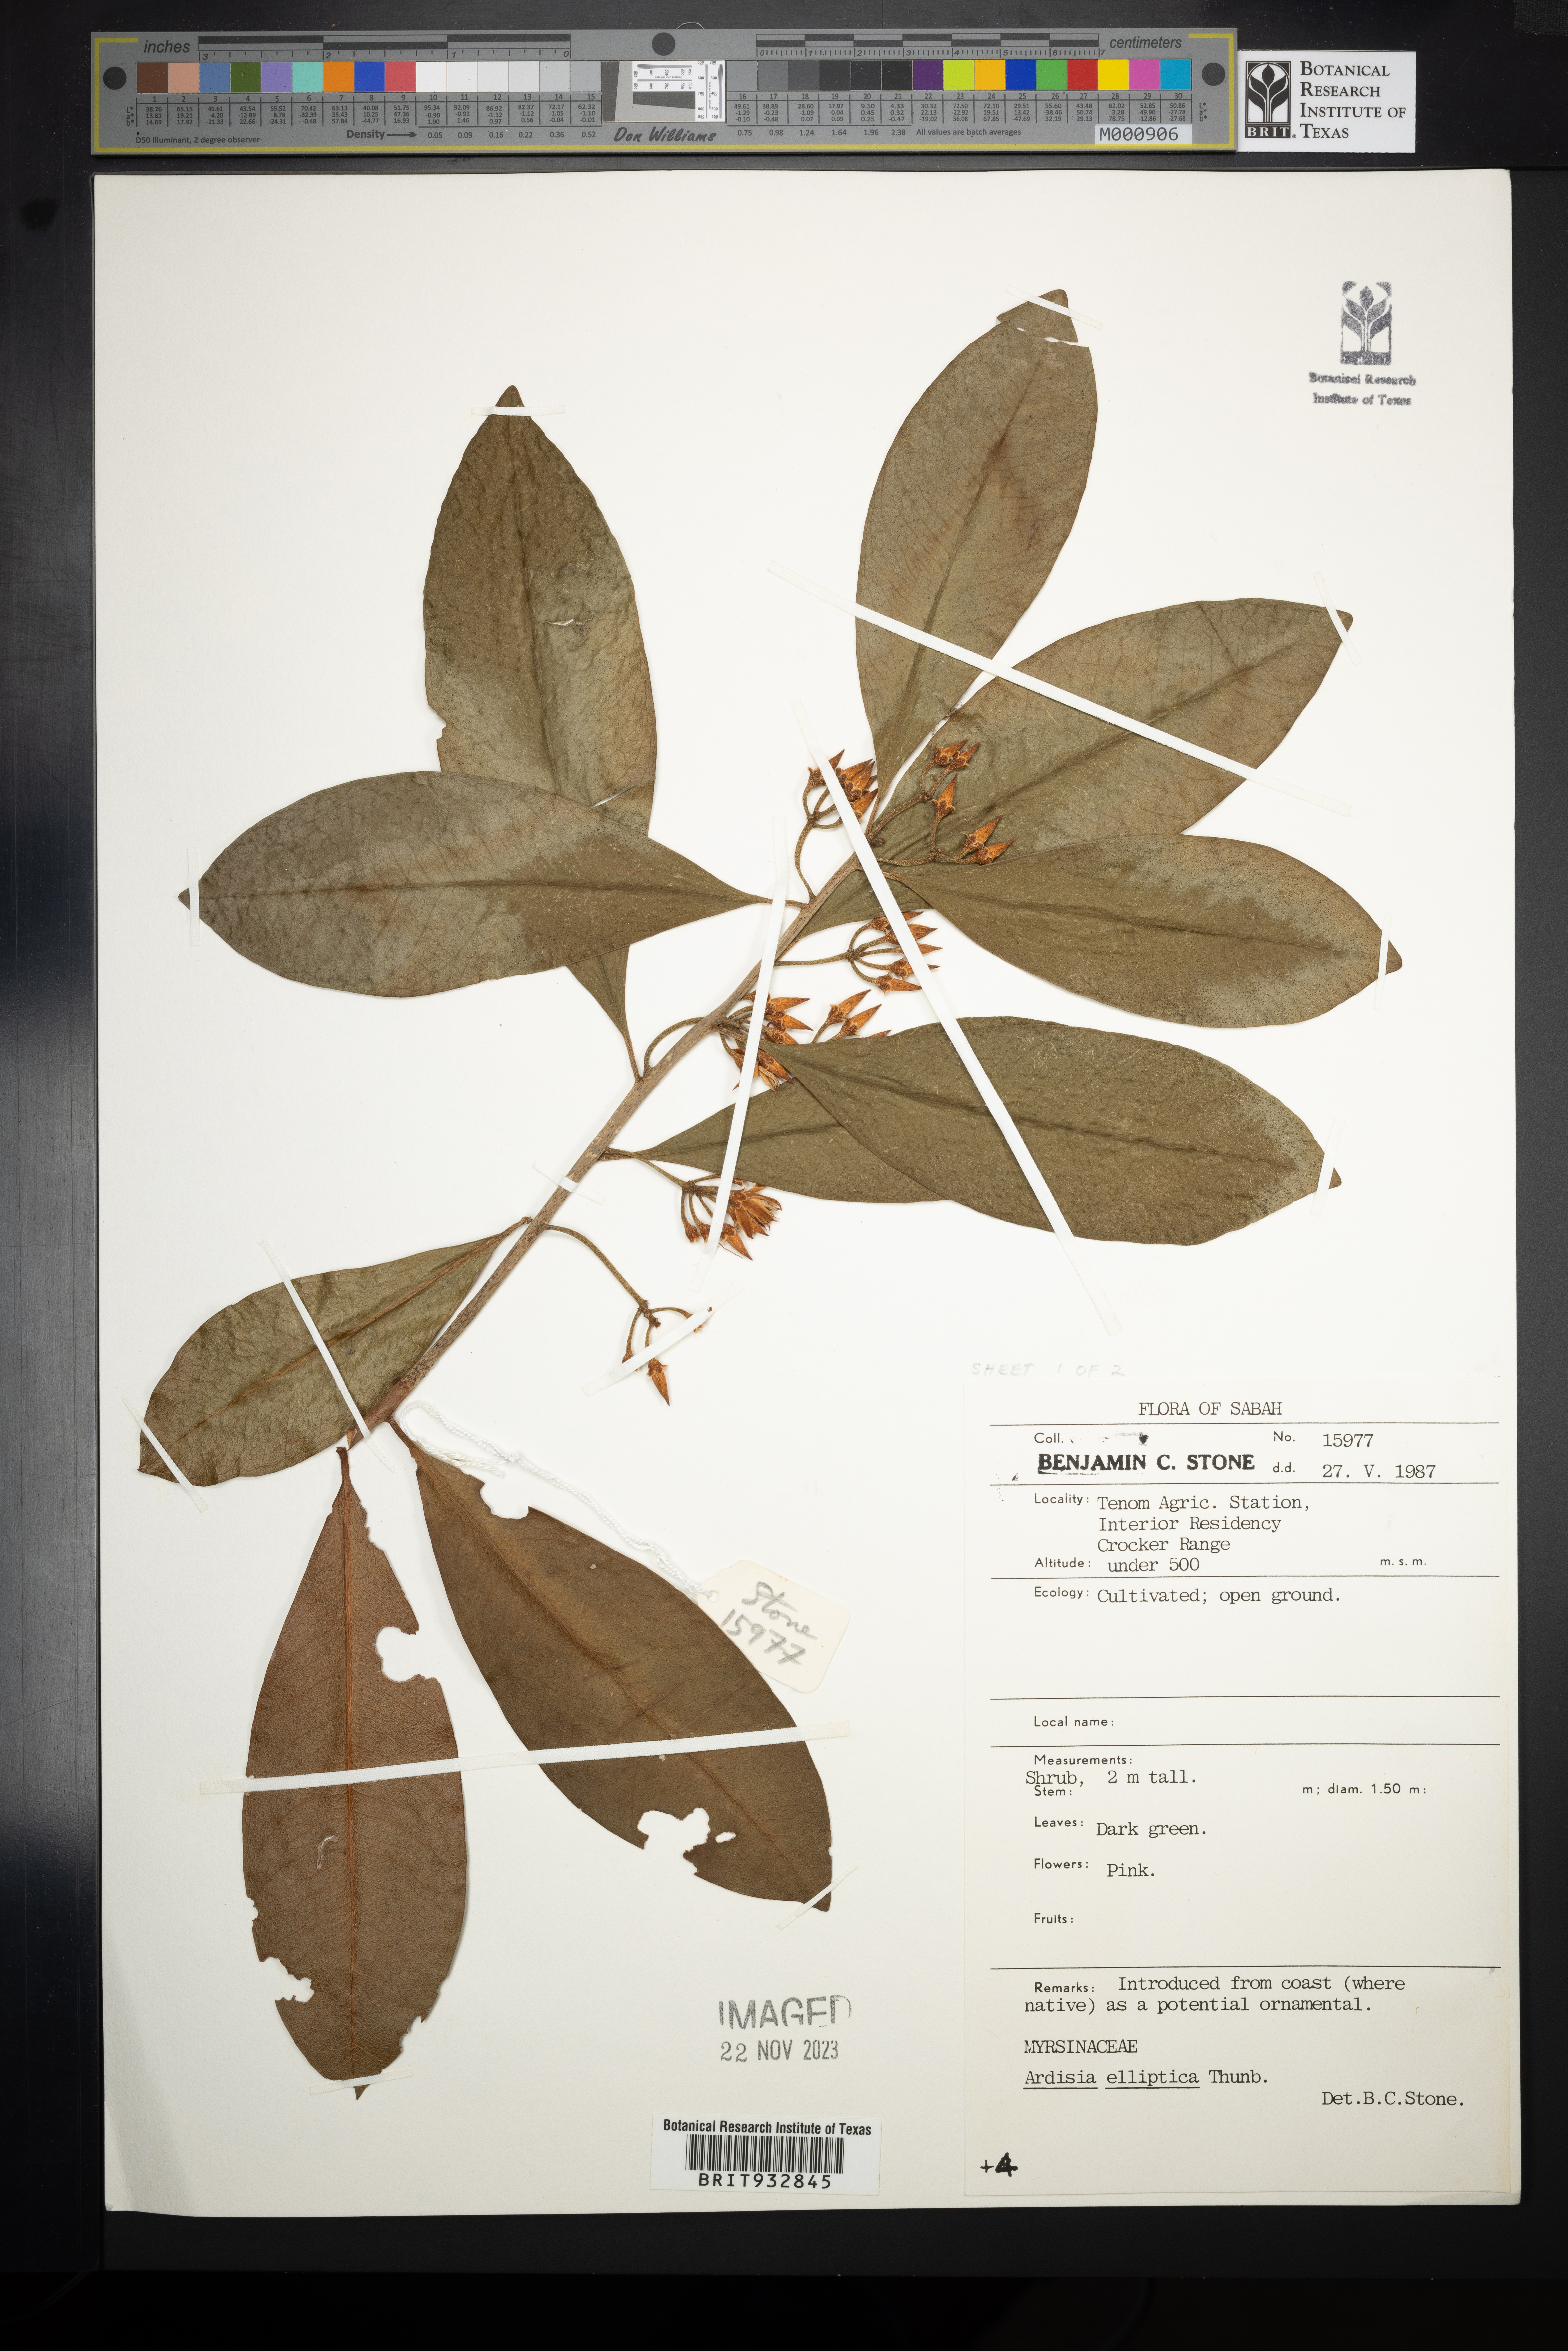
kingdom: Plantae
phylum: Tracheophyta
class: Magnoliopsida
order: Ericales
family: Primulaceae
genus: Ardisia
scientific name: Ardisia elliptica
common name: Shoebutton
